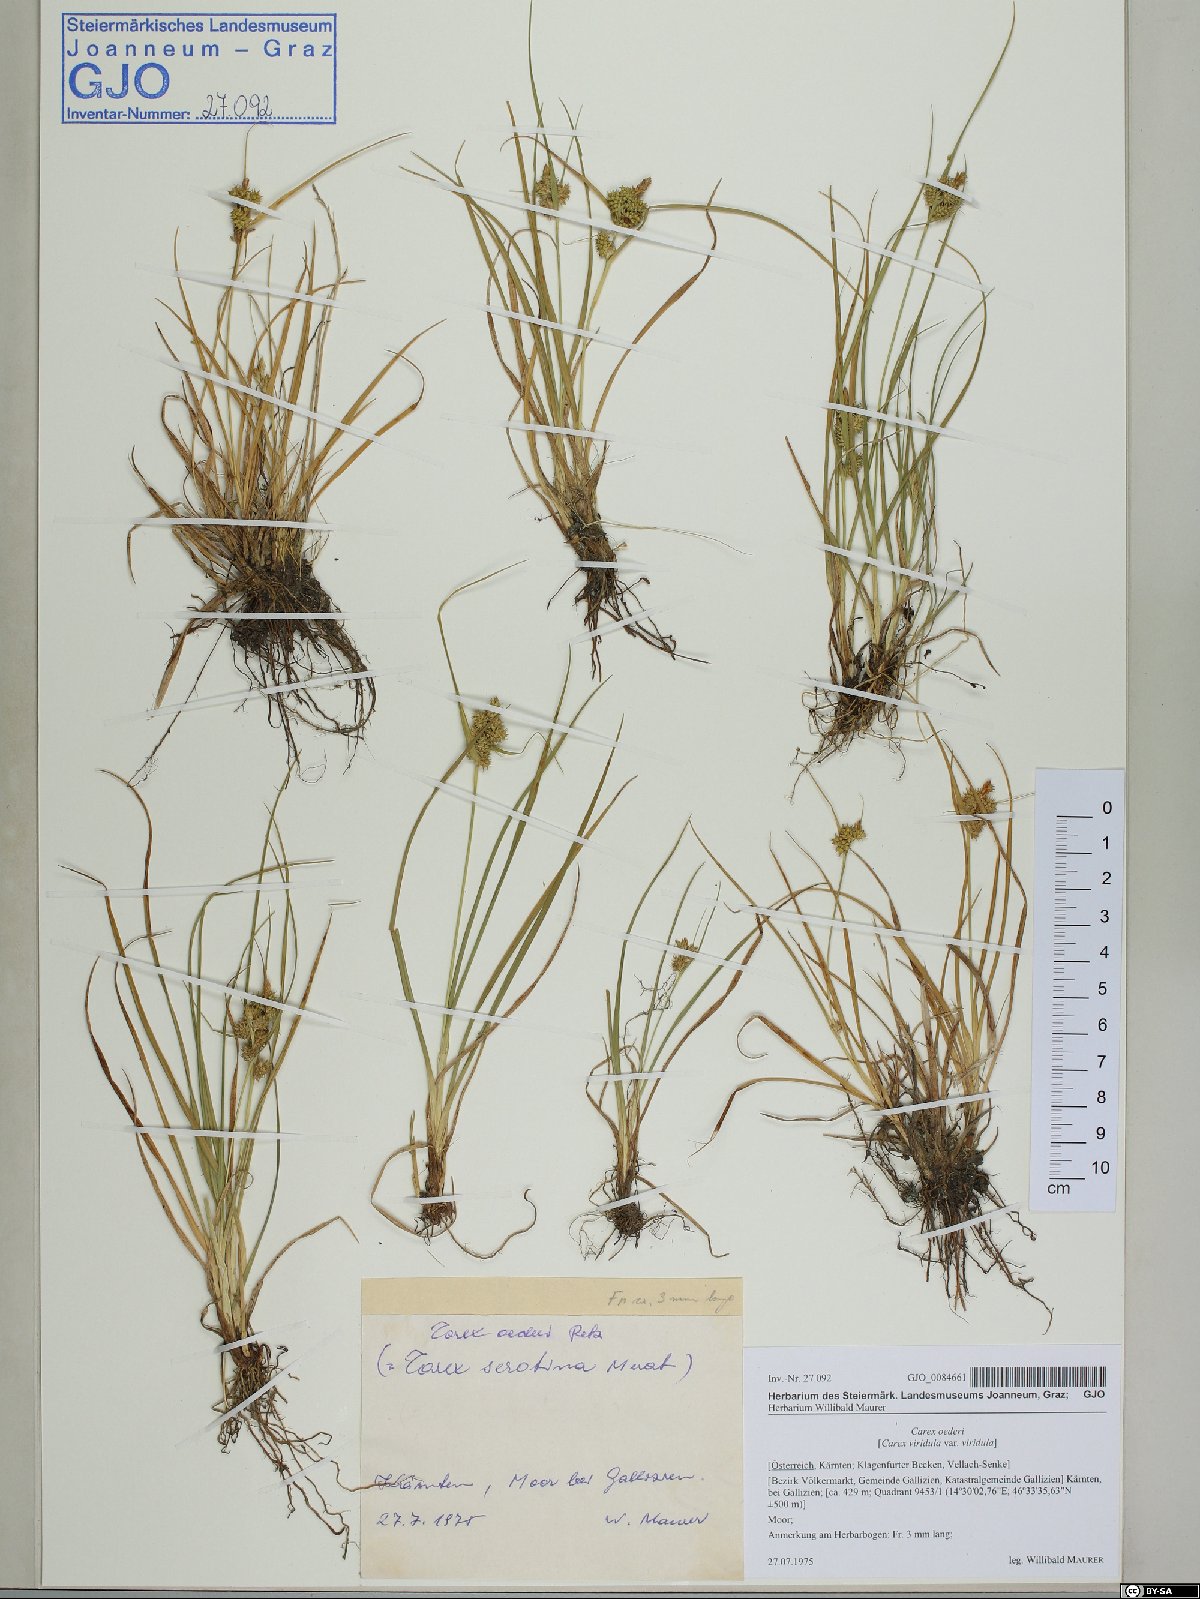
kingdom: Plantae
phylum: Tracheophyta
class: Liliopsida
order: Poales
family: Cyperaceae
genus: Carex
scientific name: Carex oederi
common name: Common & small-fruited yellow-sedge
